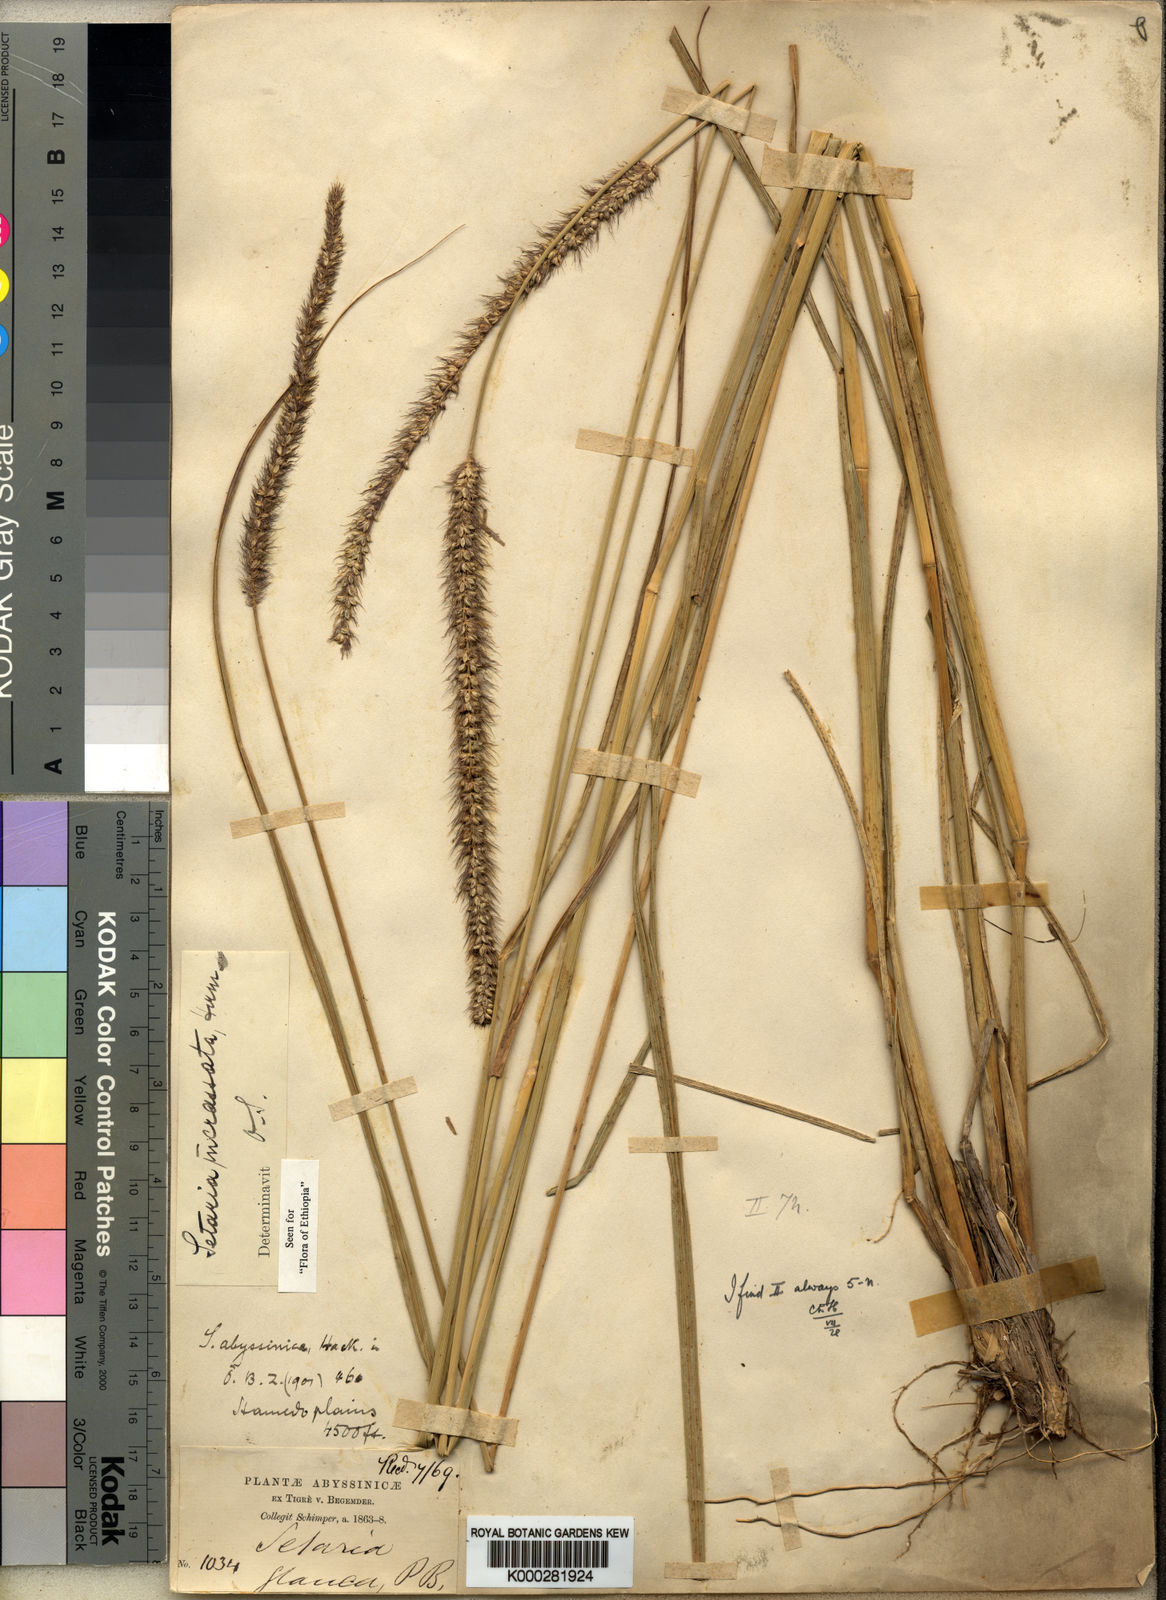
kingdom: Plantae
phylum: Tracheophyta
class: Liliopsida
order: Poales
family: Poaceae
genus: Setaria
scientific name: Setaria incrassata
